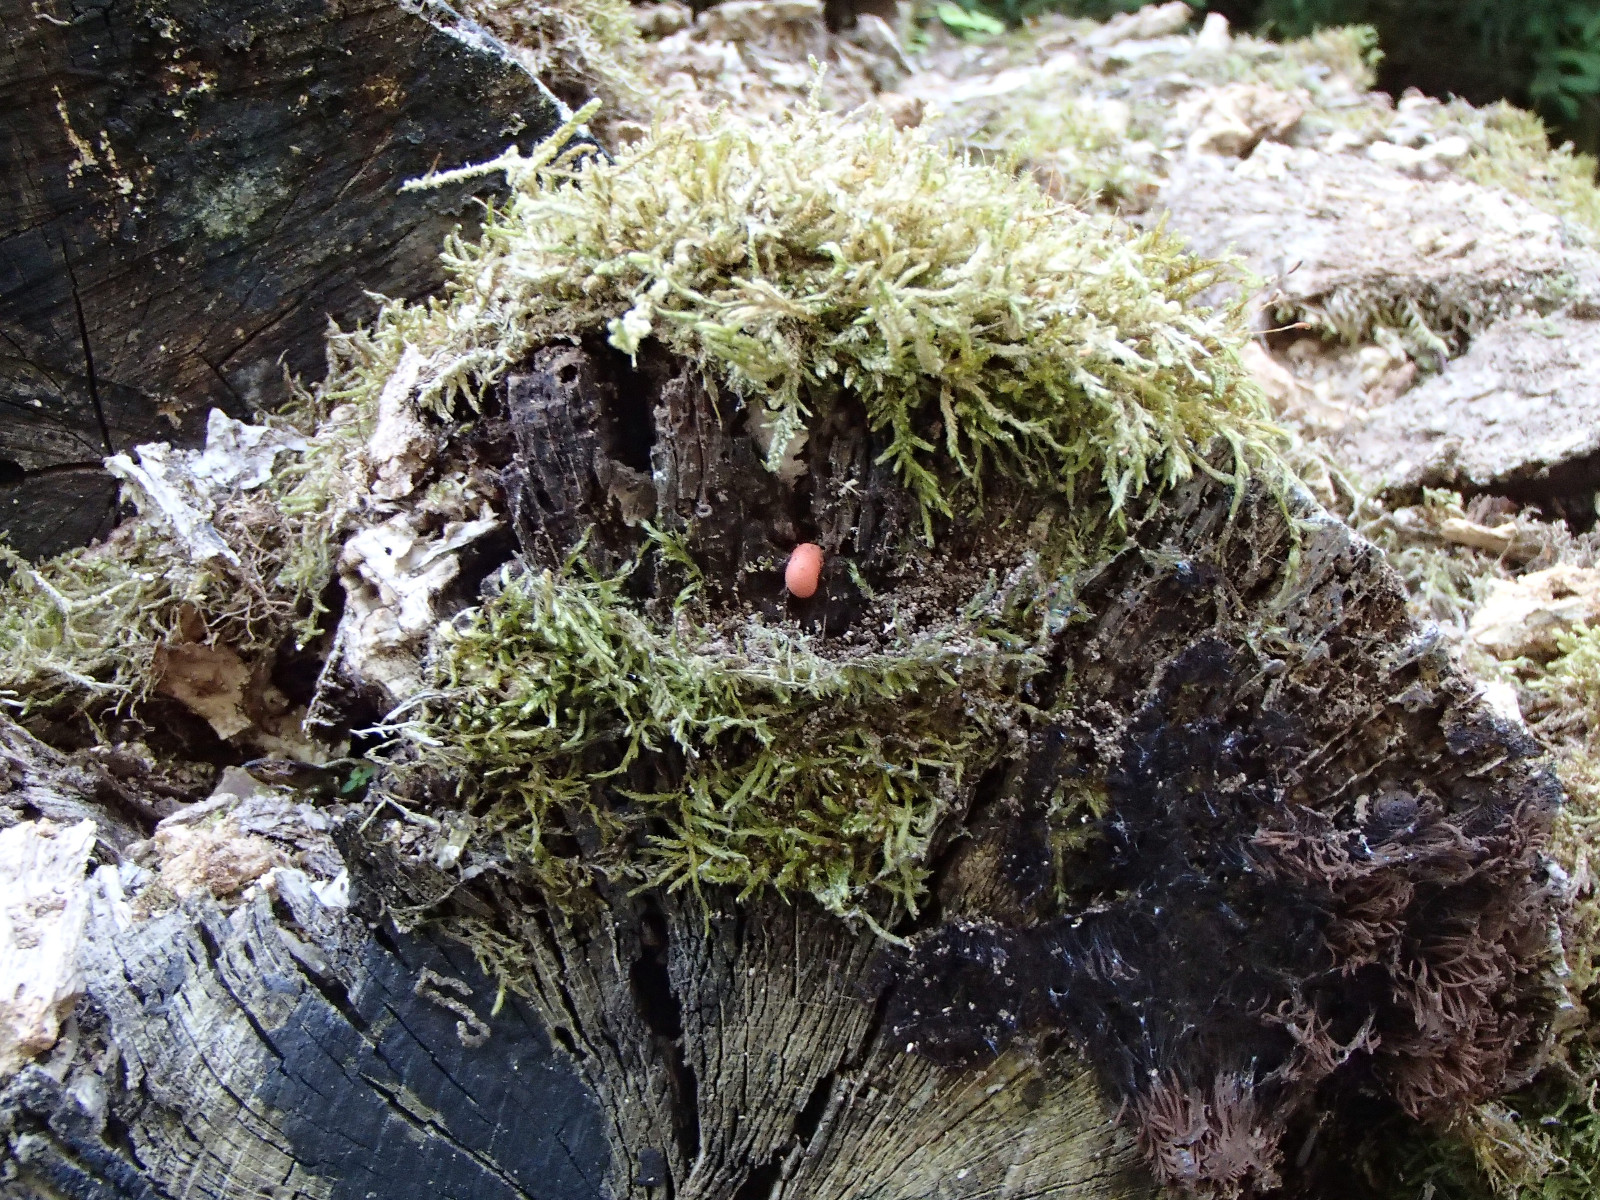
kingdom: Protozoa
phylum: Mycetozoa
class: Myxomycetes
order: Cribrariales
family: Tubiferaceae
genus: Lycogala
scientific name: Lycogala epidendrum
